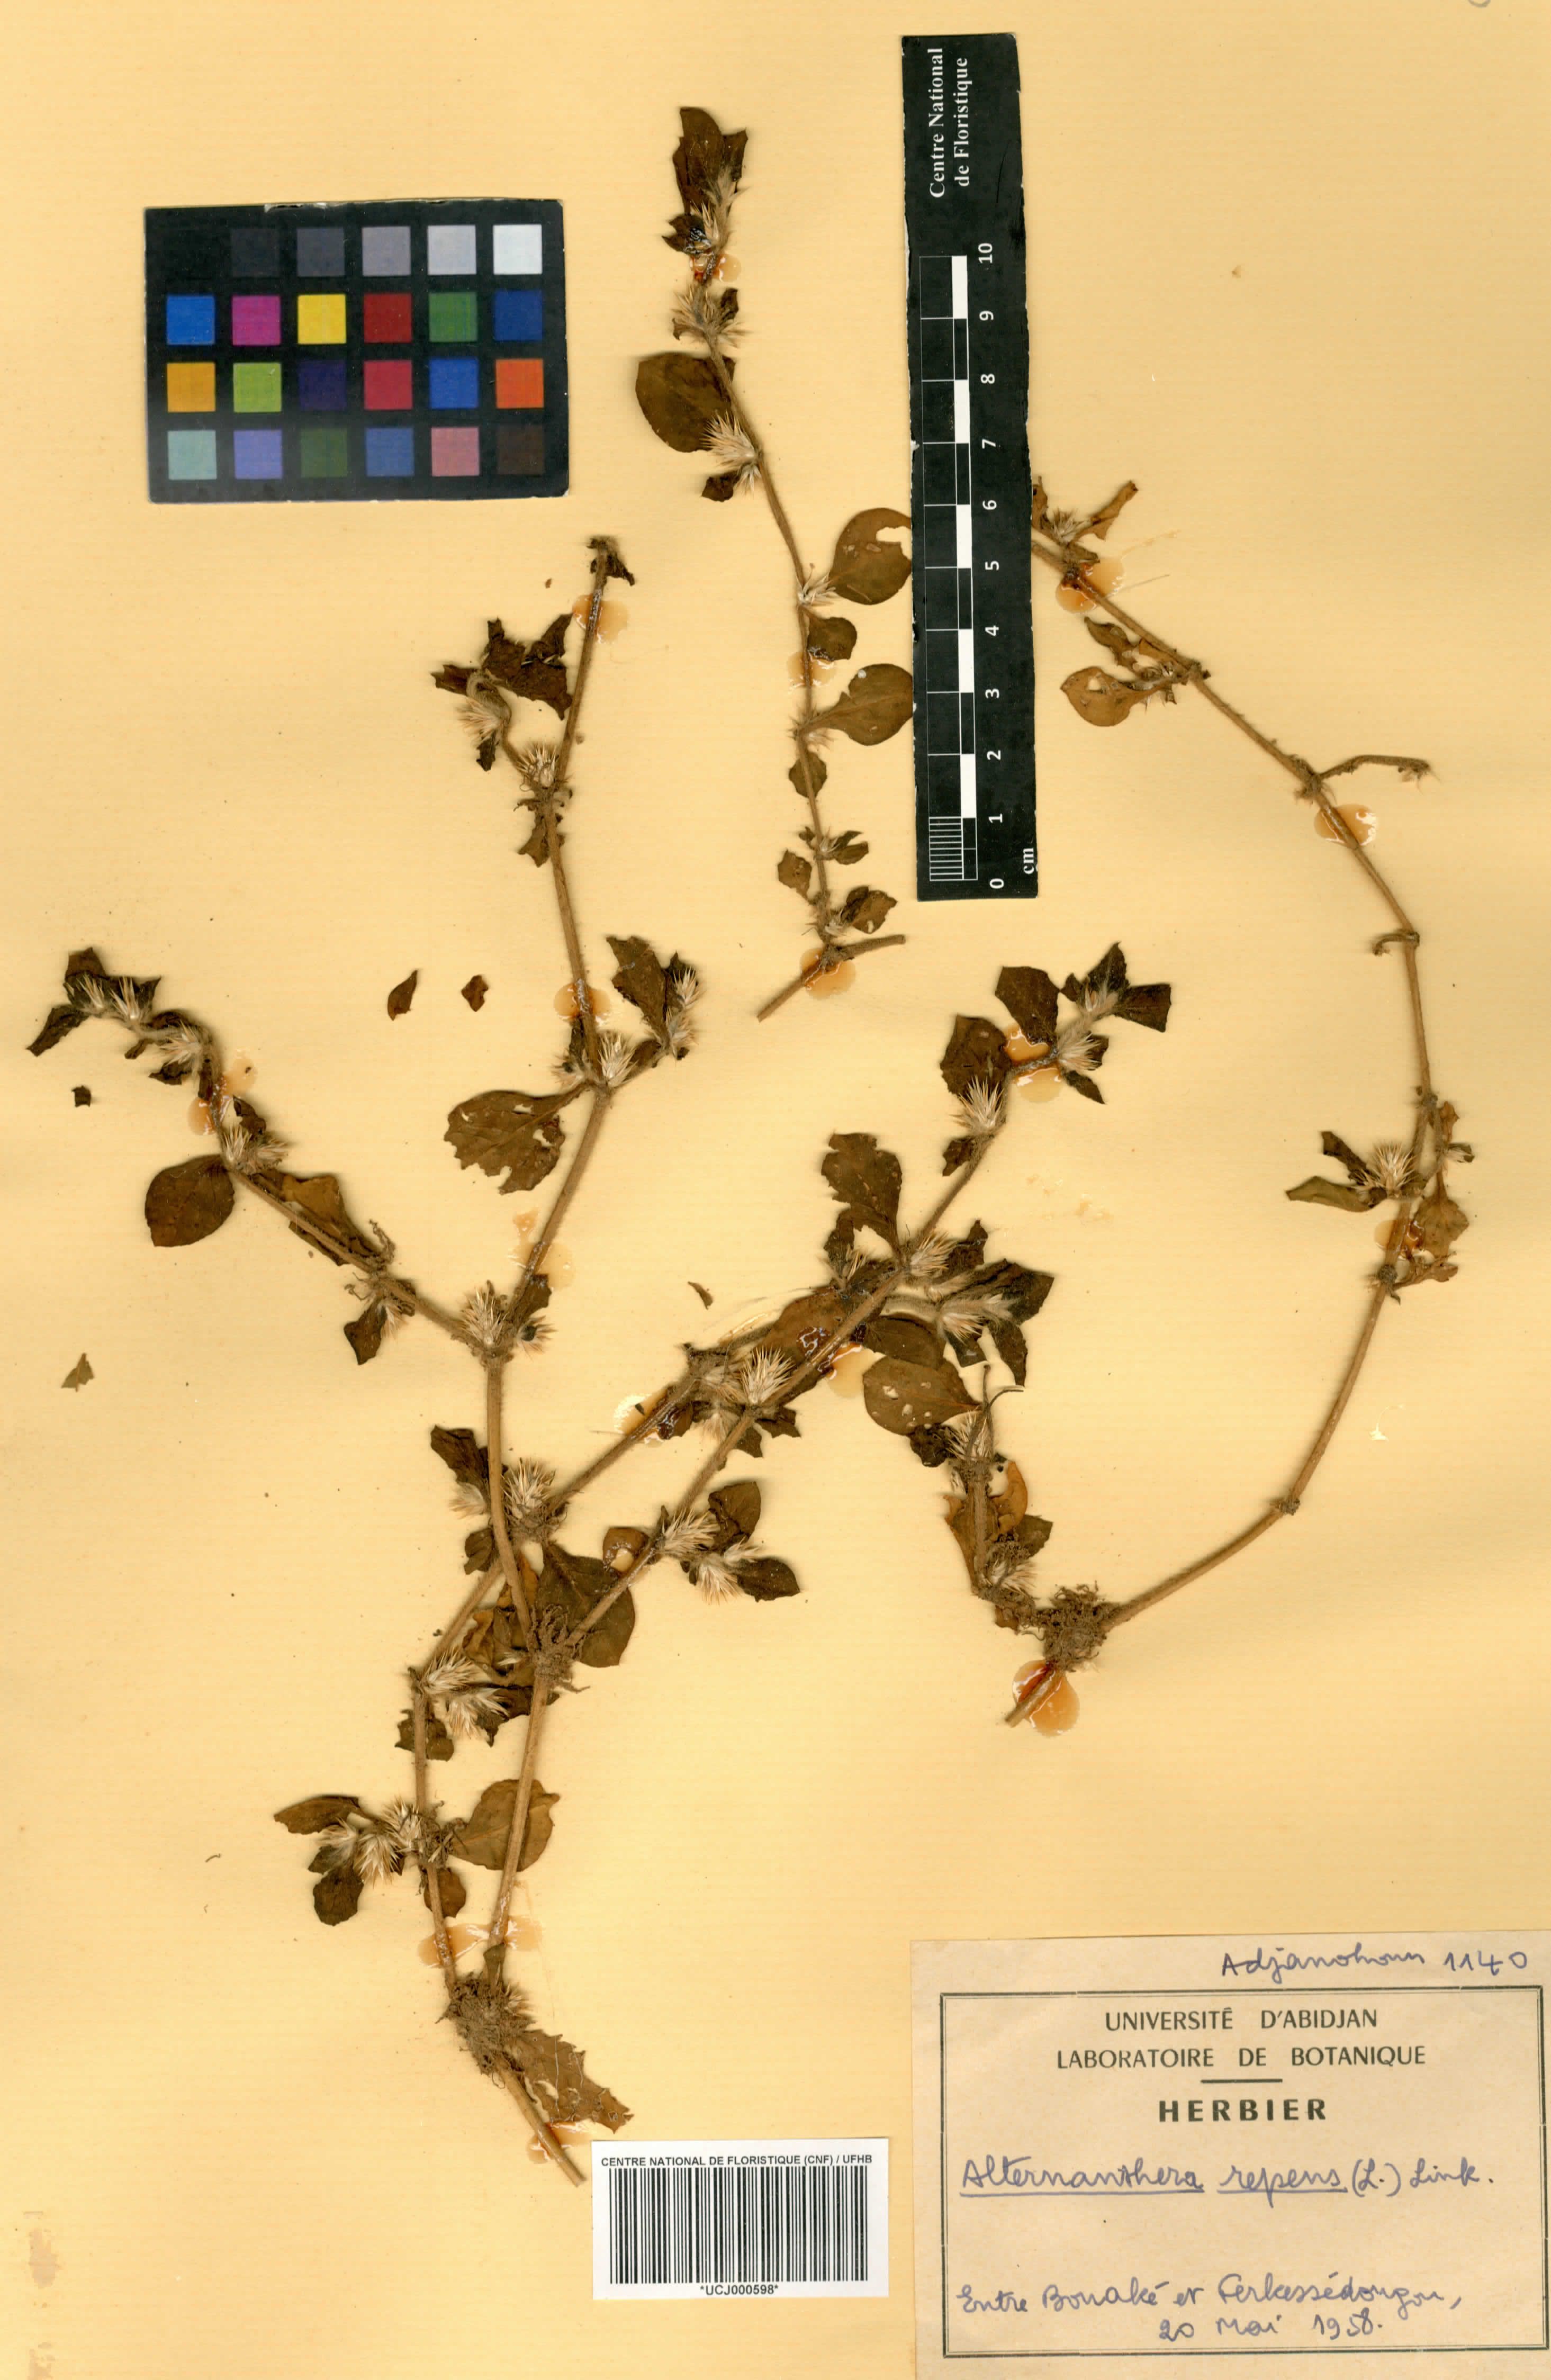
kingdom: Plantae
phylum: Tracheophyta
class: Magnoliopsida
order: Caryophyllales
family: Amaranthaceae
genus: Alternanthera
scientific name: Alternanthera
